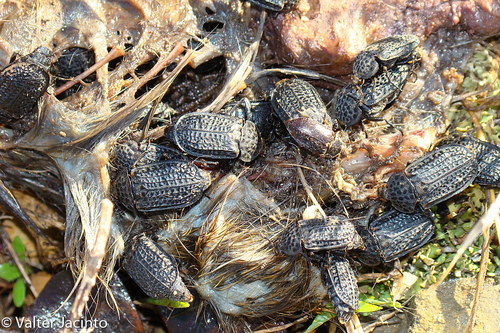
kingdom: Animalia
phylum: Arthropoda
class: Insecta
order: Coleoptera
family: Staphylinidae
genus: Thanatophilus
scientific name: Thanatophilus ruficornis
